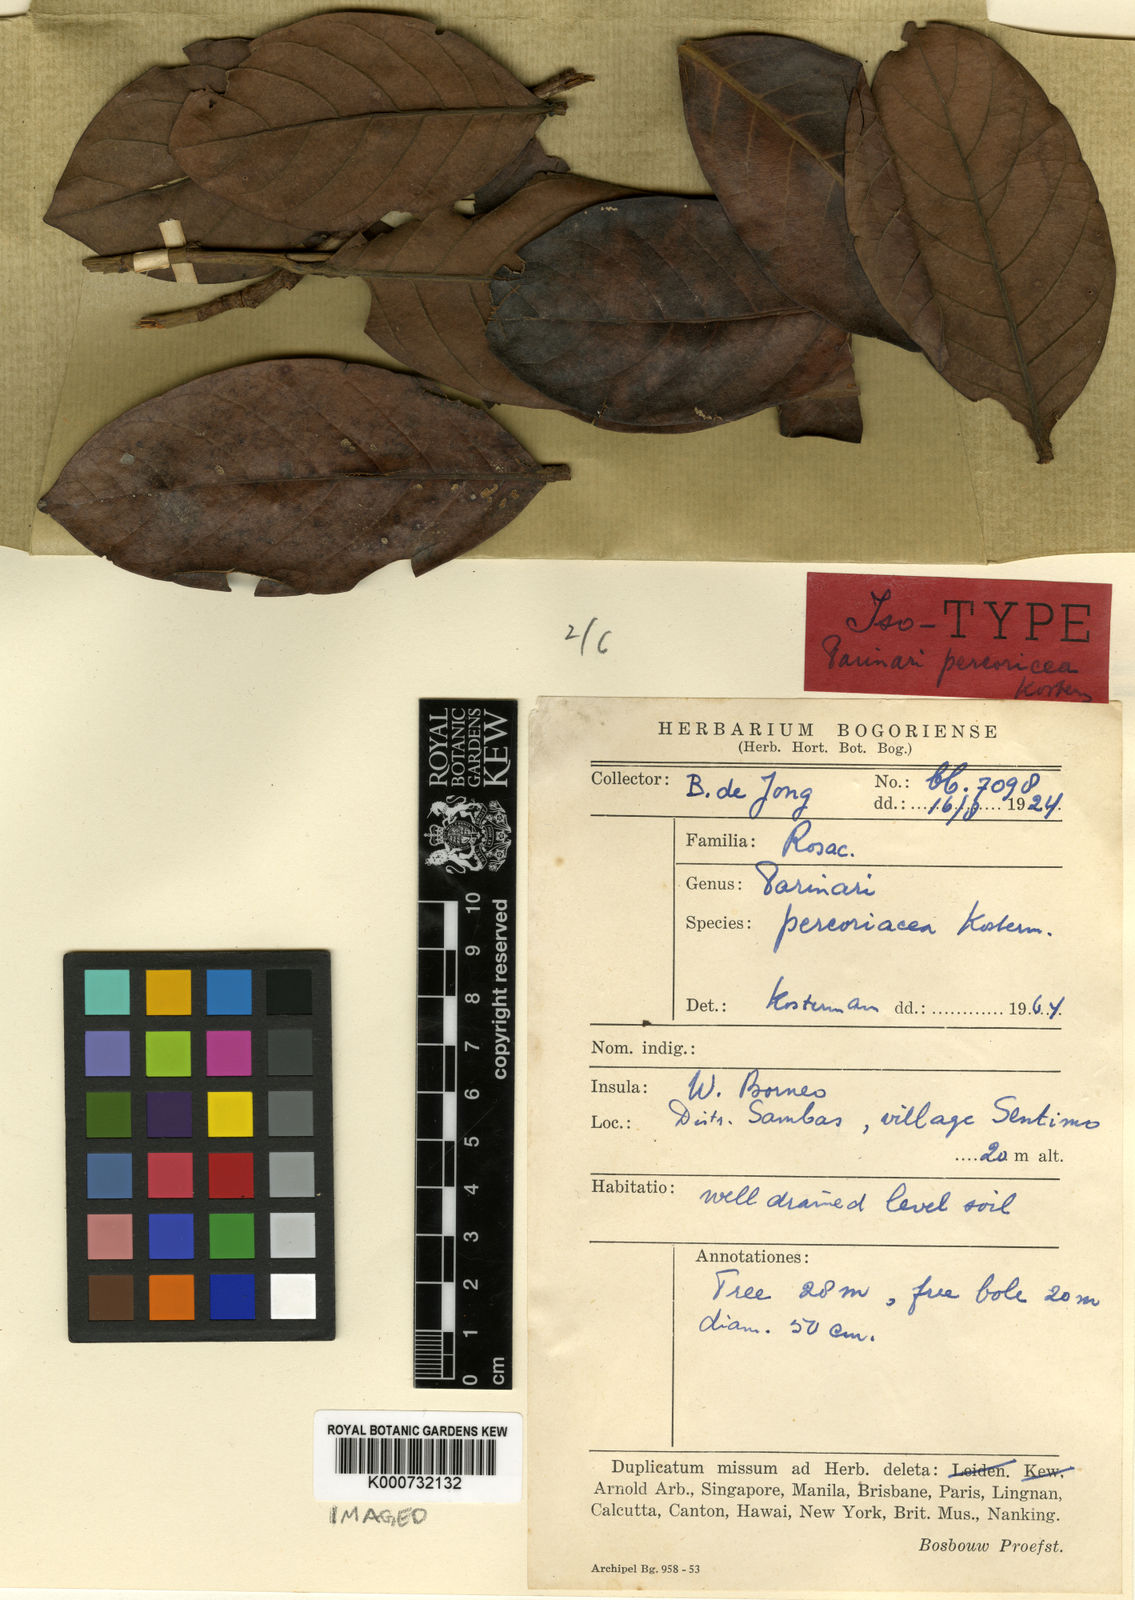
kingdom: Plantae
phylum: Tracheophyta
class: Magnoliopsida
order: Malpighiales
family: Chrysobalanaceae
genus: Parinari
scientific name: Parinari
